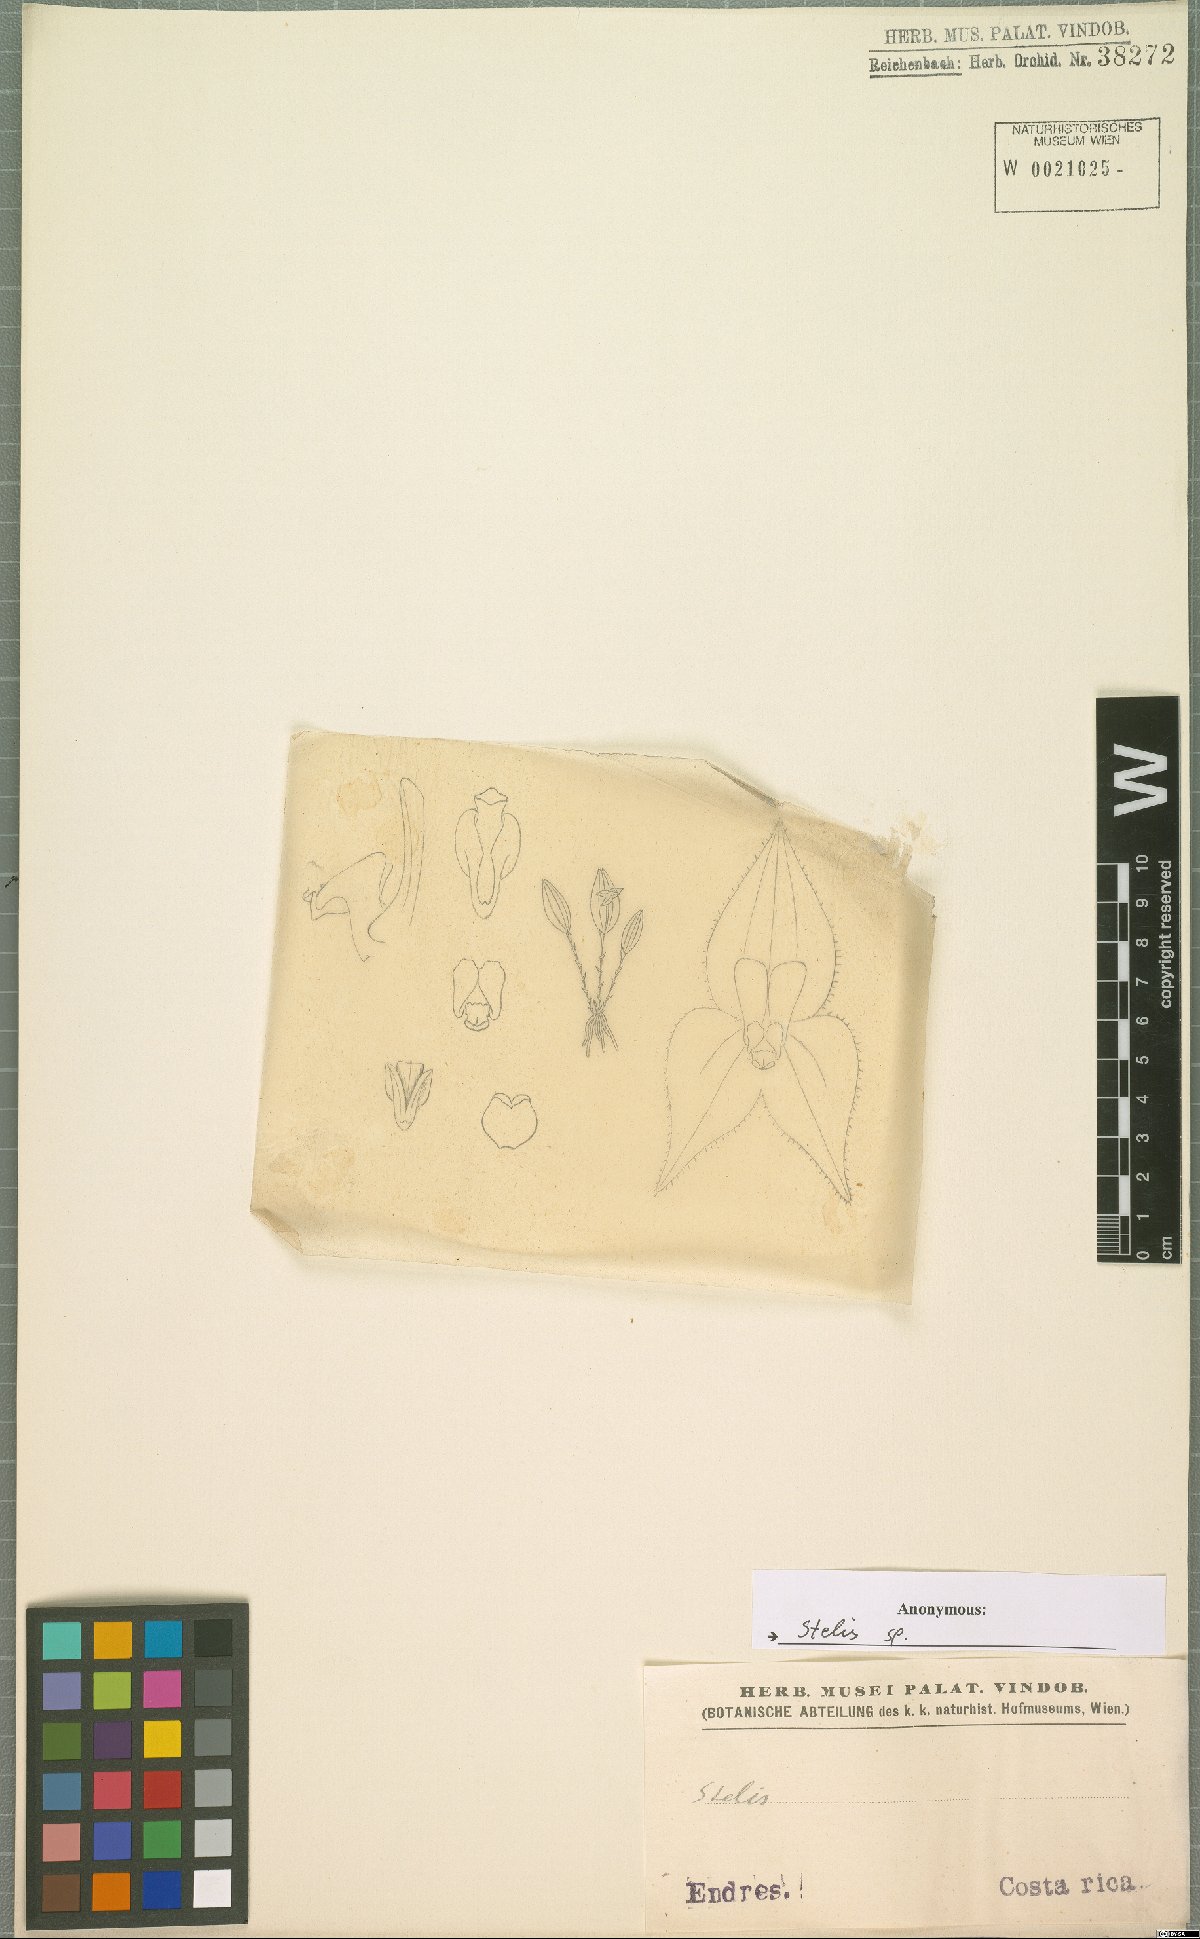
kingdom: Plantae
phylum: Tracheophyta
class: Liliopsida
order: Asparagales
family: Orchidaceae
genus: Stelis
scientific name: Stelis
